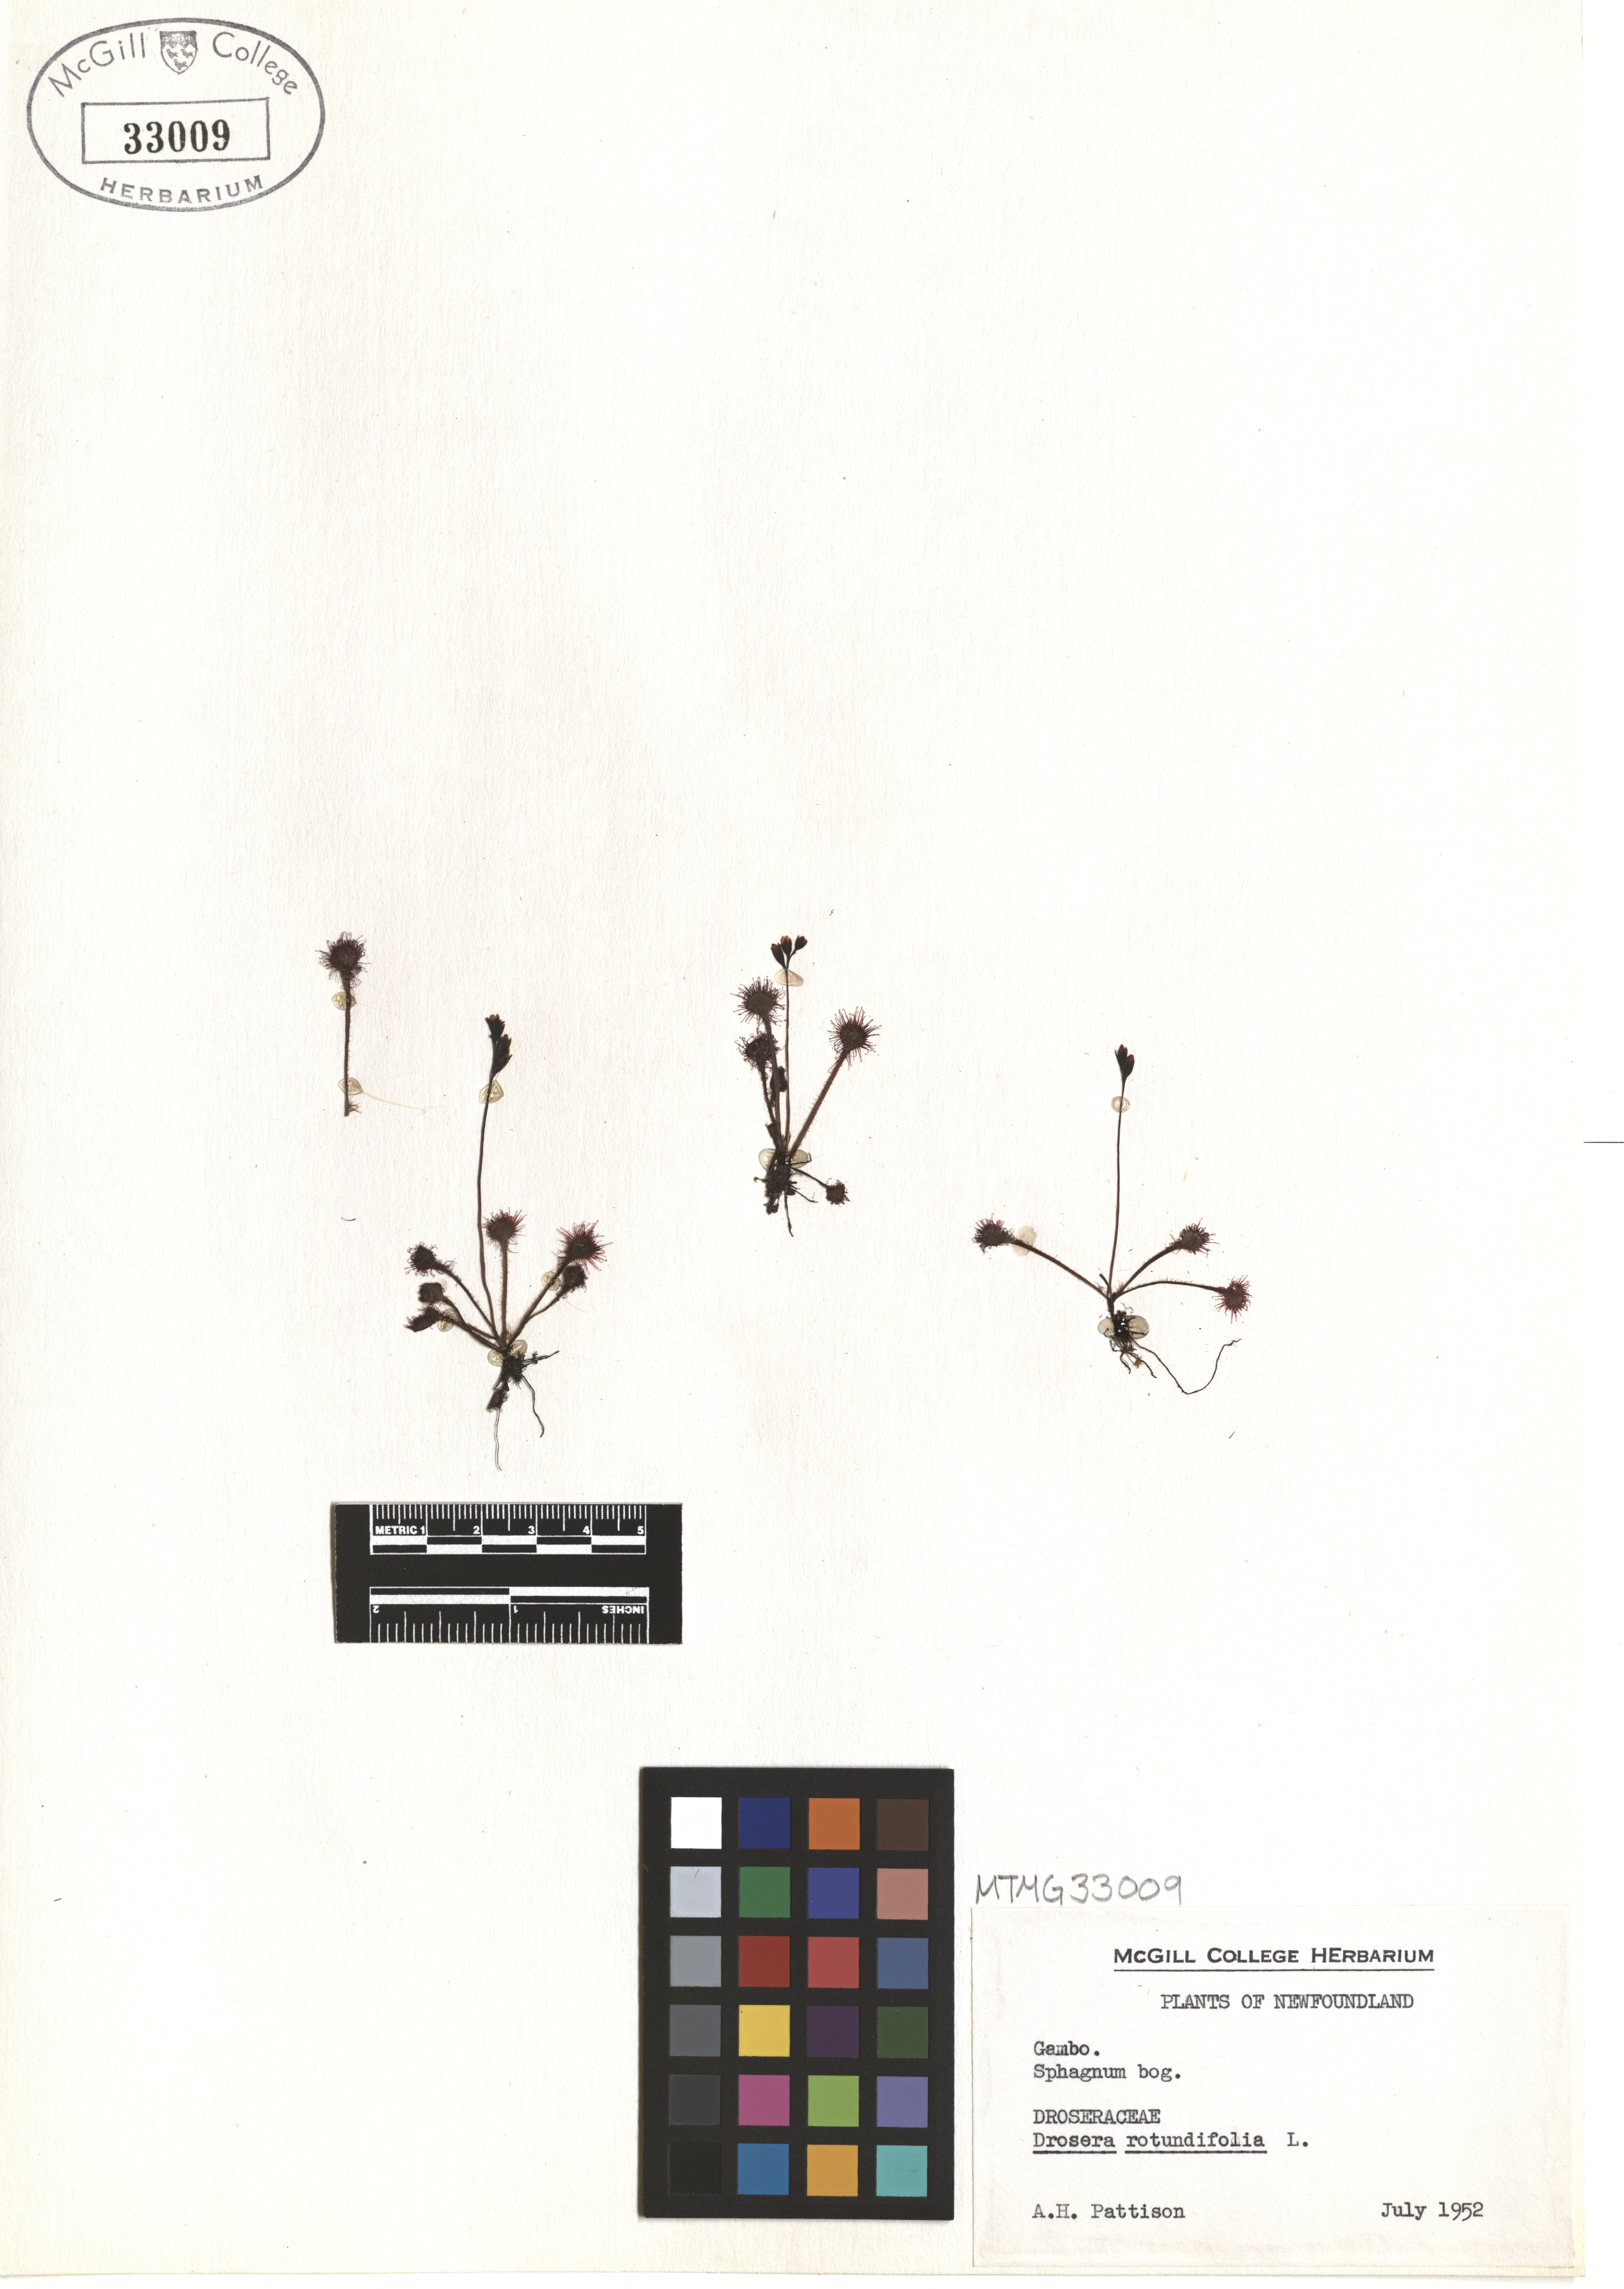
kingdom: Plantae
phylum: Tracheophyta
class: Magnoliopsida
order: Caryophyllales
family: Droseraceae
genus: Drosera
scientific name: Drosera rotundifolia
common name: Round-leaved sundew
